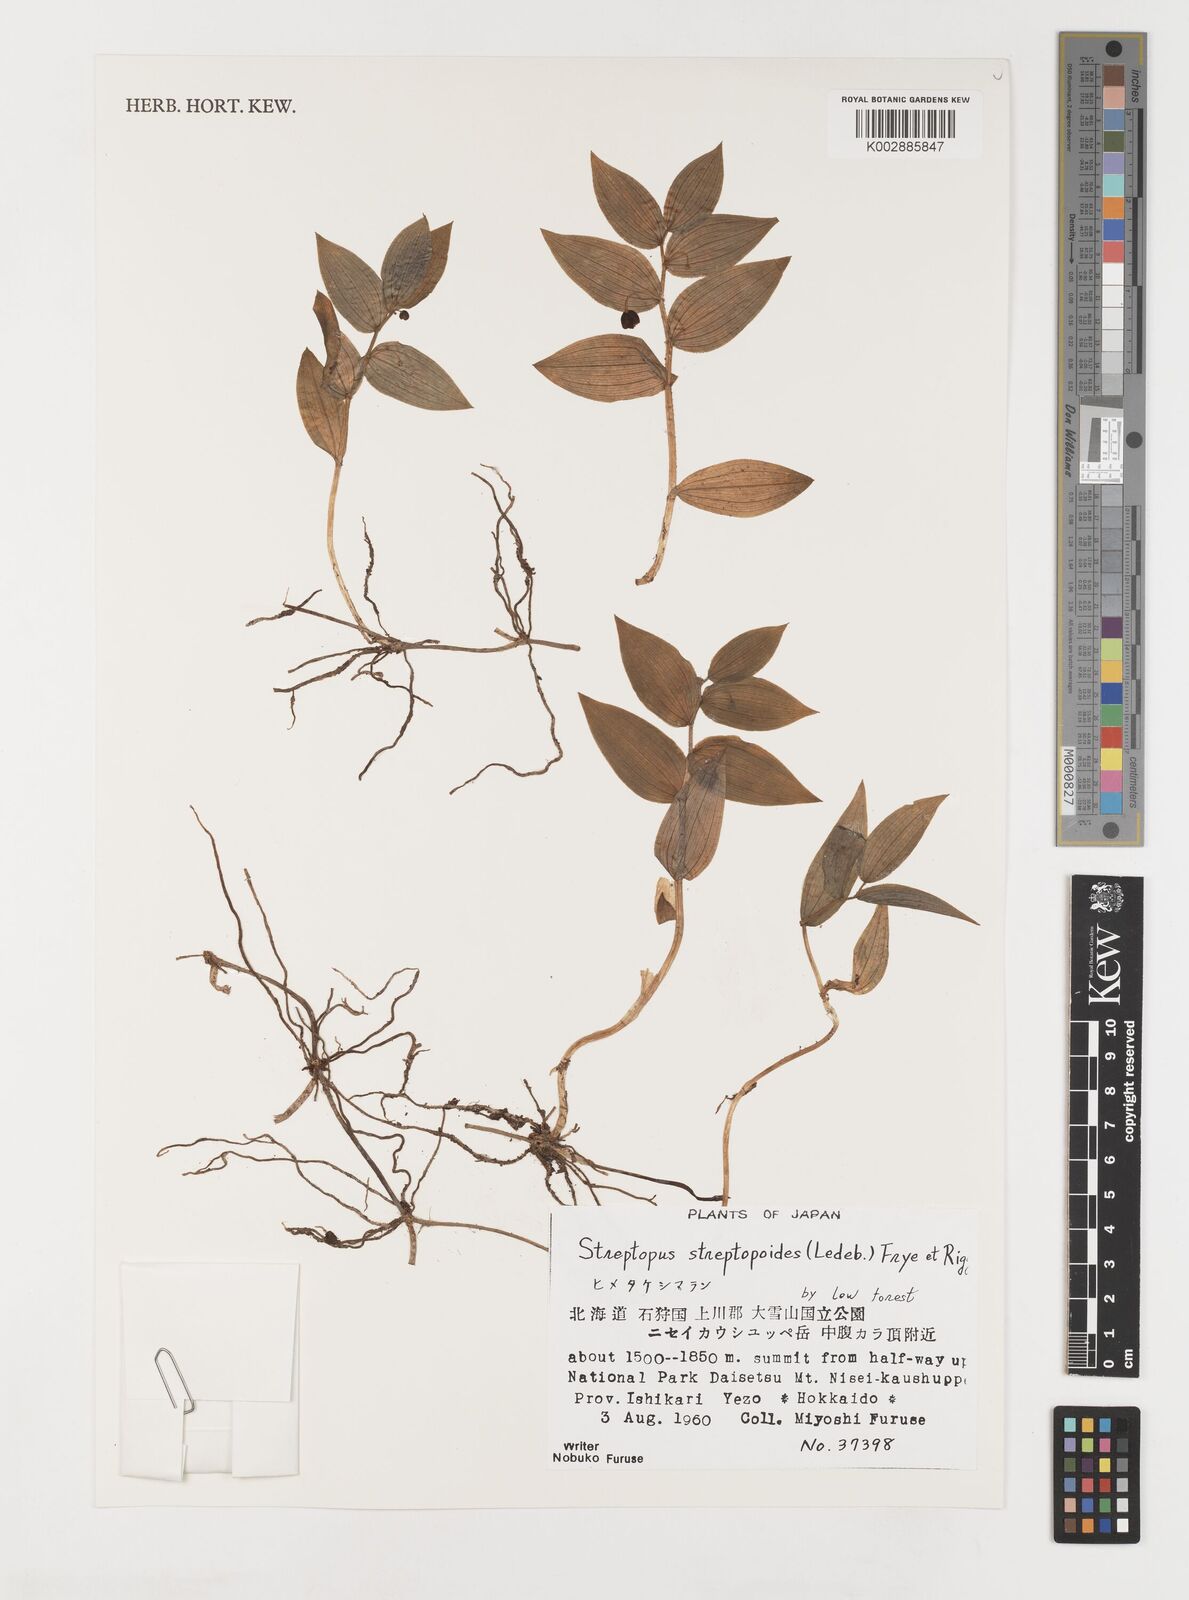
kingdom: Plantae
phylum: Tracheophyta
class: Liliopsida
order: Liliales
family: Liliaceae
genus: Streptopus
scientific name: Streptopus streptopoides
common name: Small twisted-stalk
